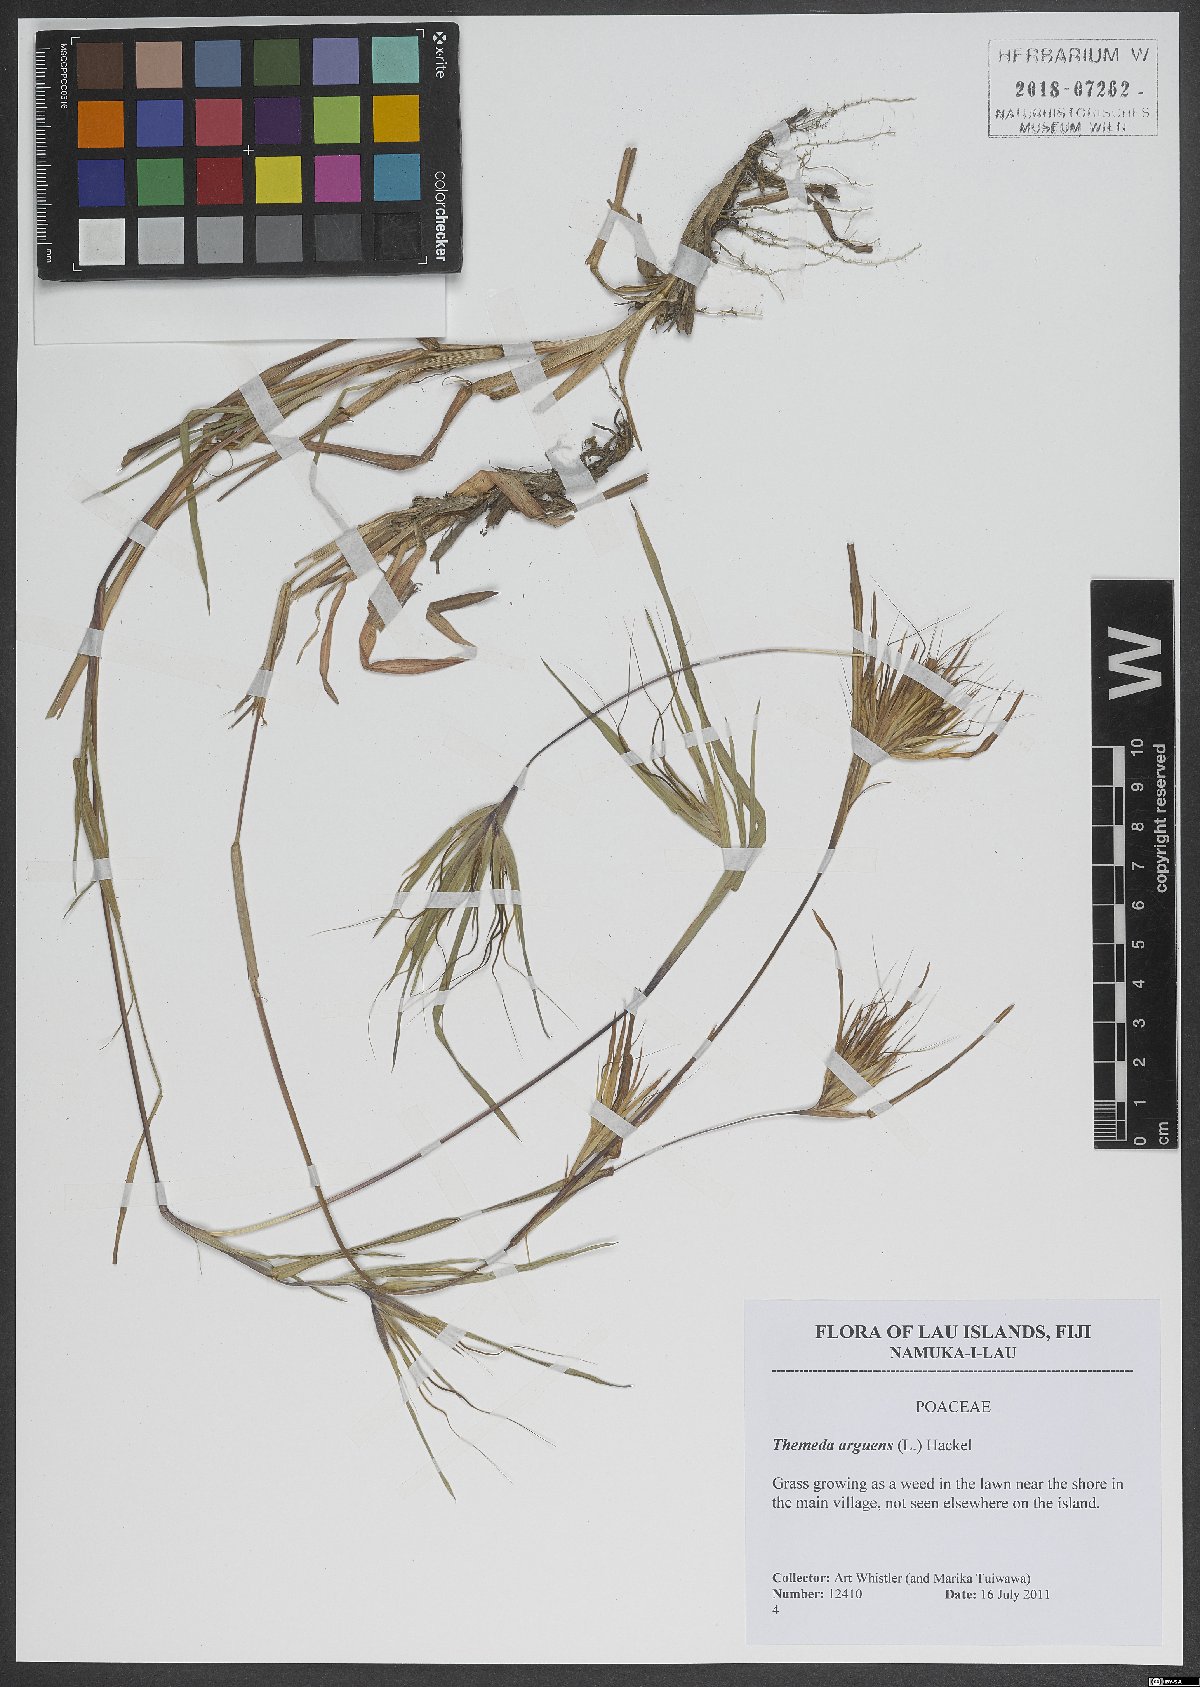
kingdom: Plantae
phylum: Tracheophyta
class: Liliopsida
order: Poales
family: Poaceae
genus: Themeda
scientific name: Themeda arguens
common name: Christmas grass
